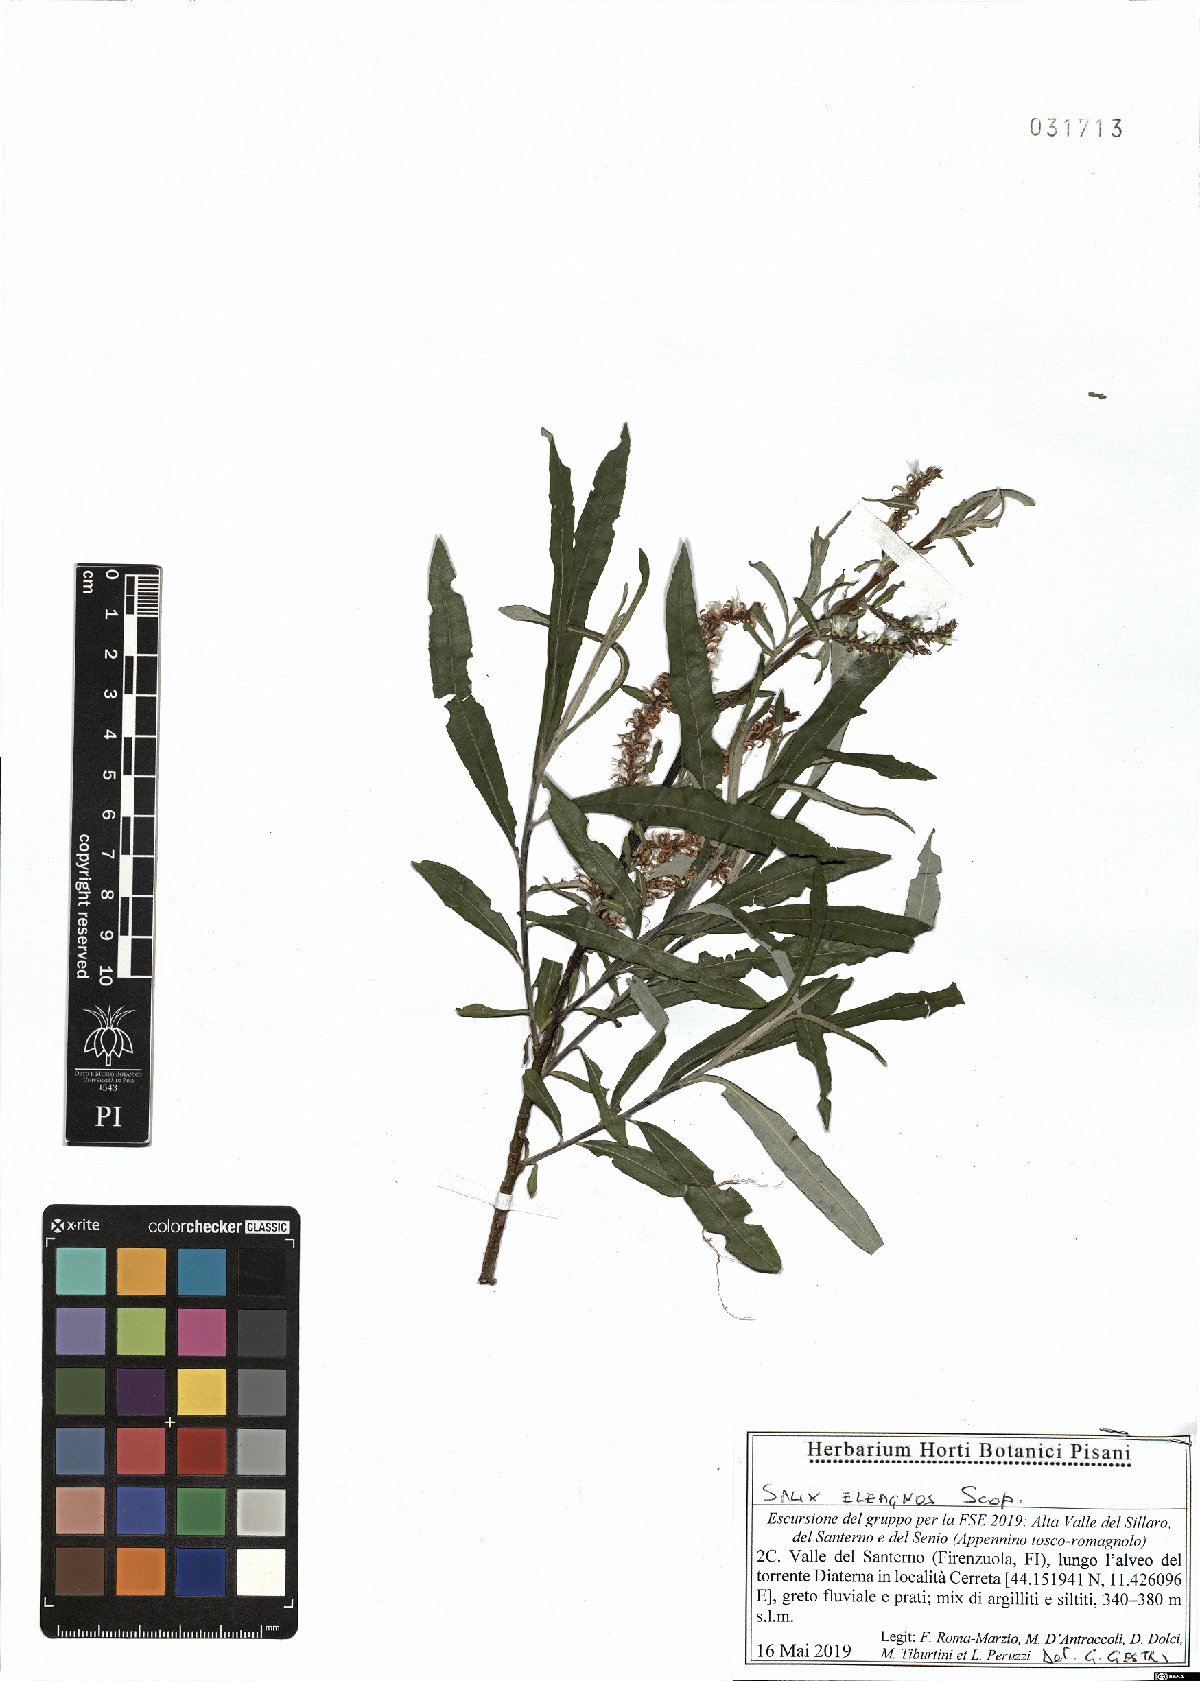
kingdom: Plantae
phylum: Tracheophyta
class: Magnoliopsida
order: Malpighiales
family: Salicaceae
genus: Salix
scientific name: Salix eleagnos
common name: Elaeagnus willow
